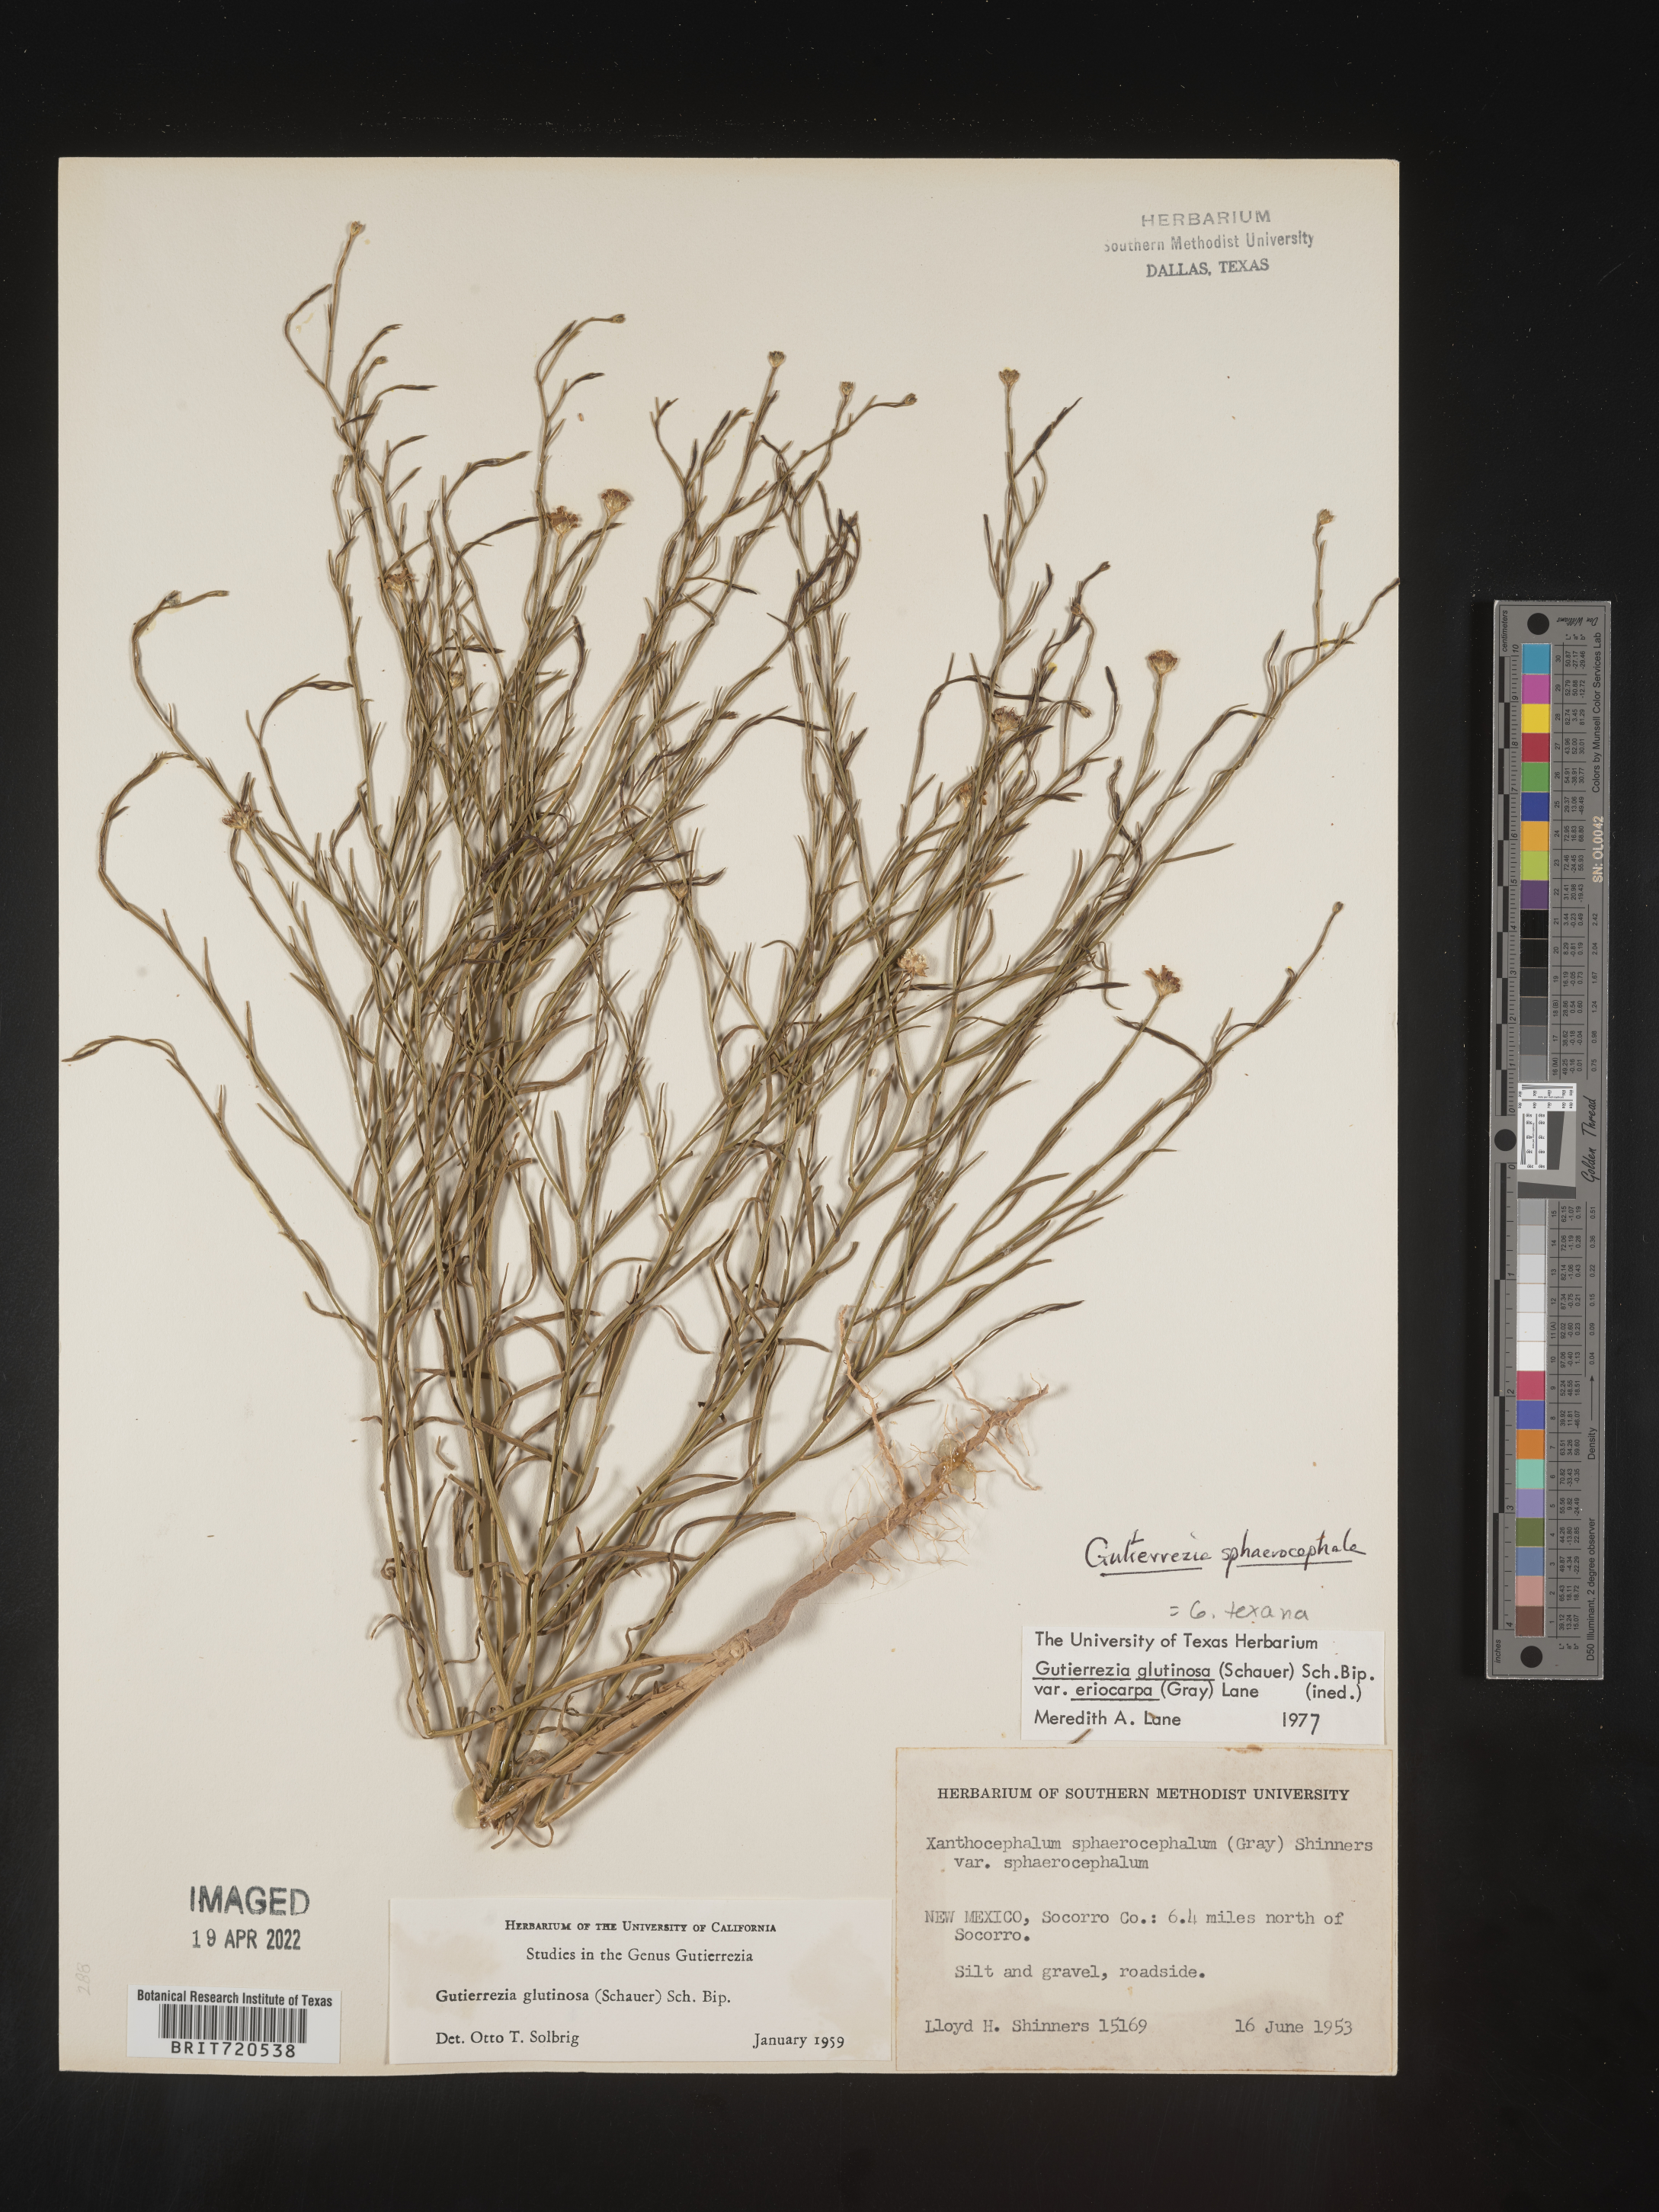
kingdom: Plantae
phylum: Tracheophyta
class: Magnoliopsida
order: Asterales
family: Asteraceae
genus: Gutierrezia
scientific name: Gutierrezia sphaerocephala
